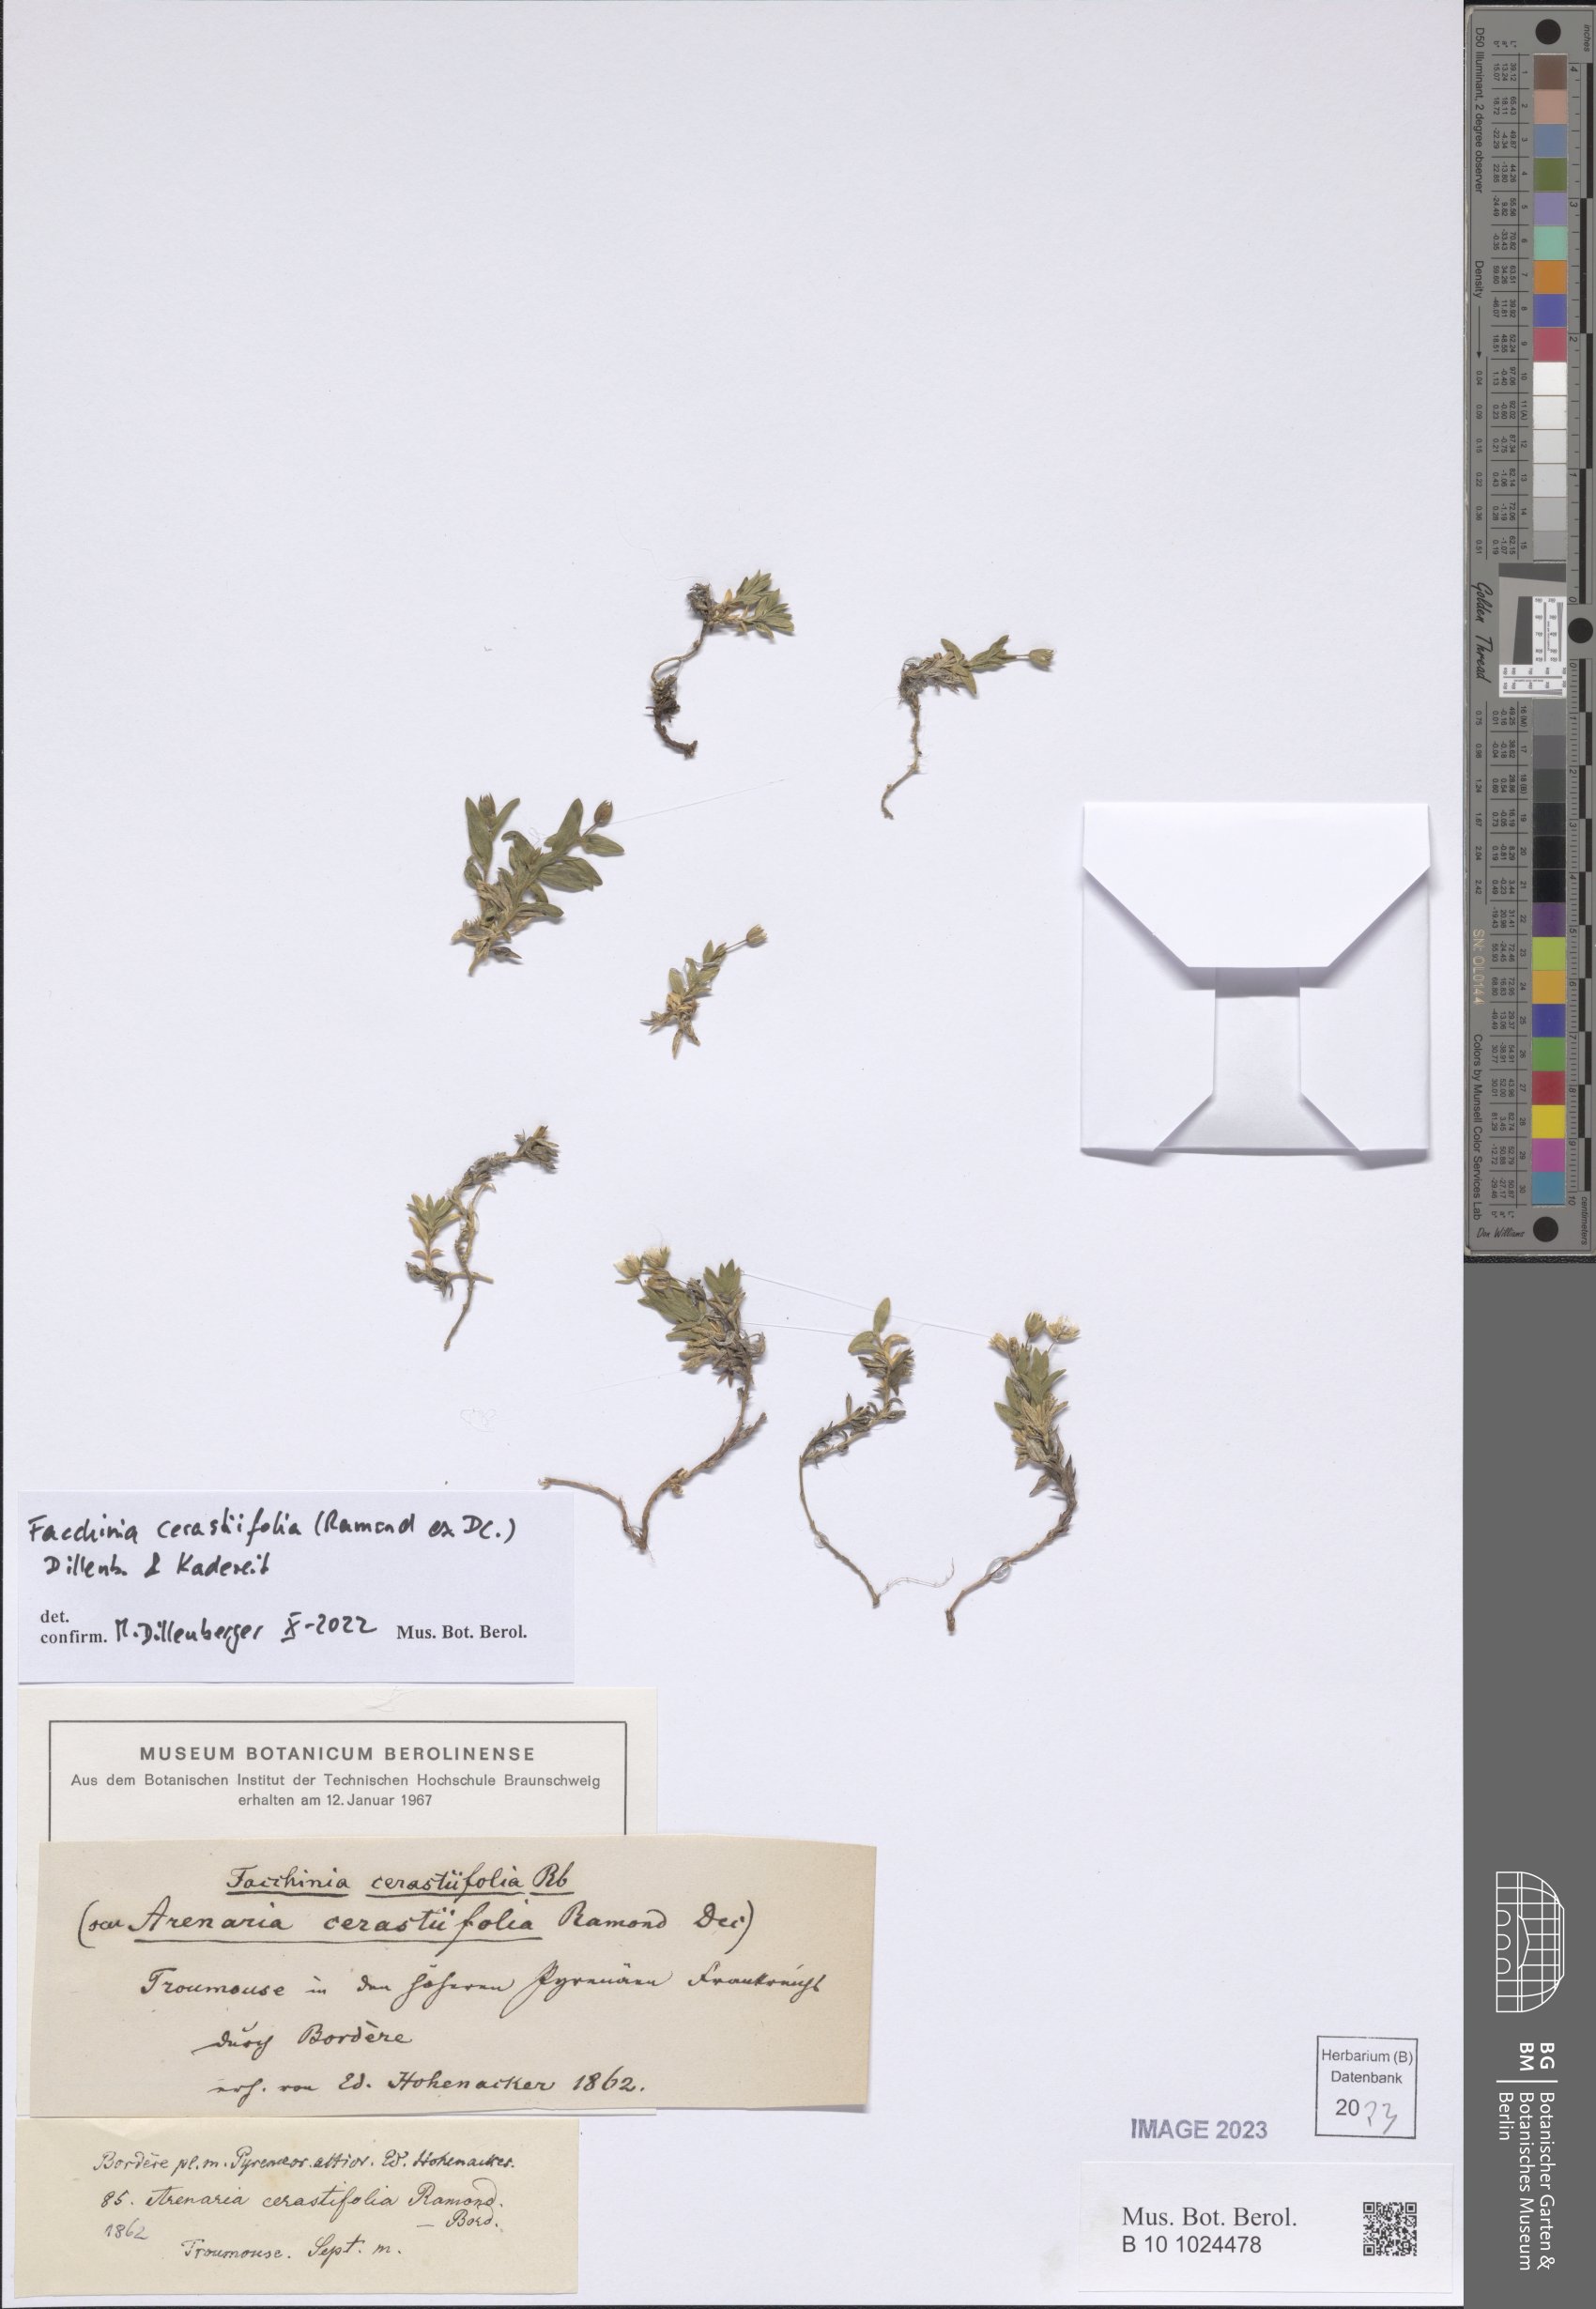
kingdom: Plantae
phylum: Tracheophyta
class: Magnoliopsida
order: Caryophyllales
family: Caryophyllaceae
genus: Facchinia
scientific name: Facchinia cerastiifolia
